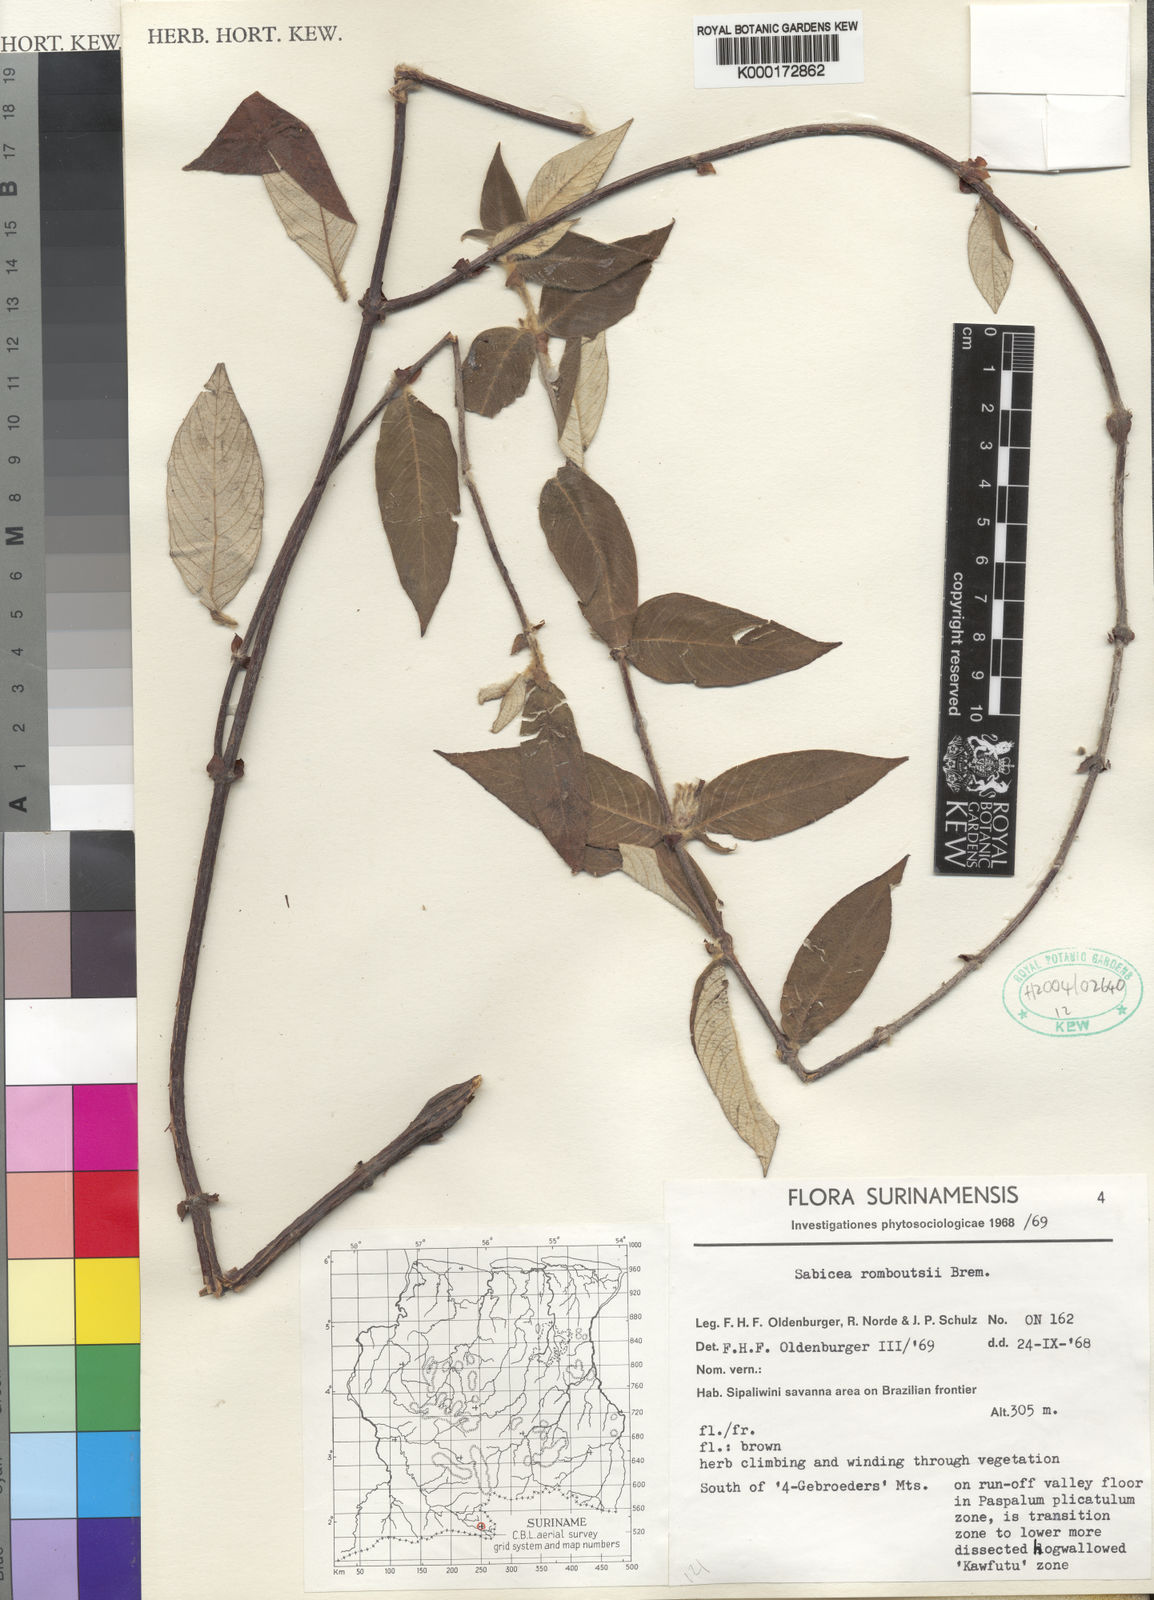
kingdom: Plantae
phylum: Tracheophyta
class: Magnoliopsida
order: Gentianales
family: Rubiaceae
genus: Sabicea
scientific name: Sabicea romboutsii
